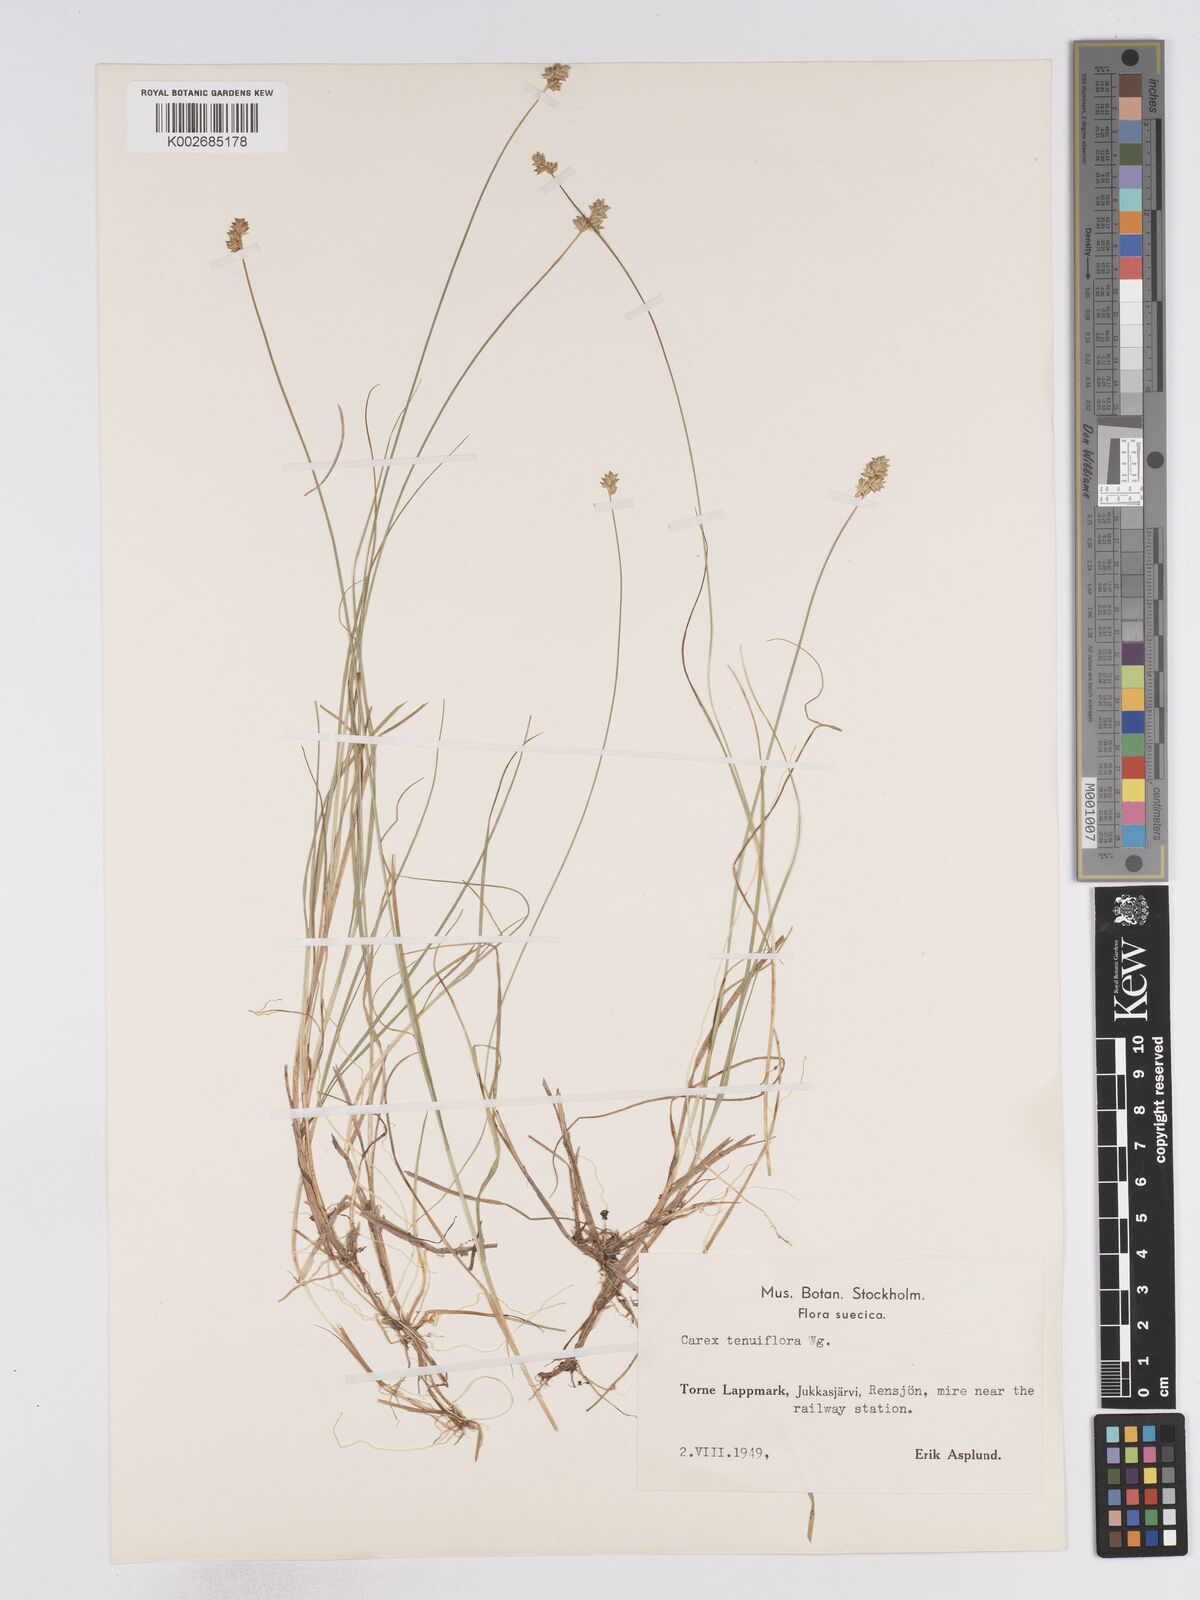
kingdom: Plantae
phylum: Tracheophyta
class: Liliopsida
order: Poales
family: Cyperaceae
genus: Carex
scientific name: Carex tenuiflora
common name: Sparse-flowered sedge
